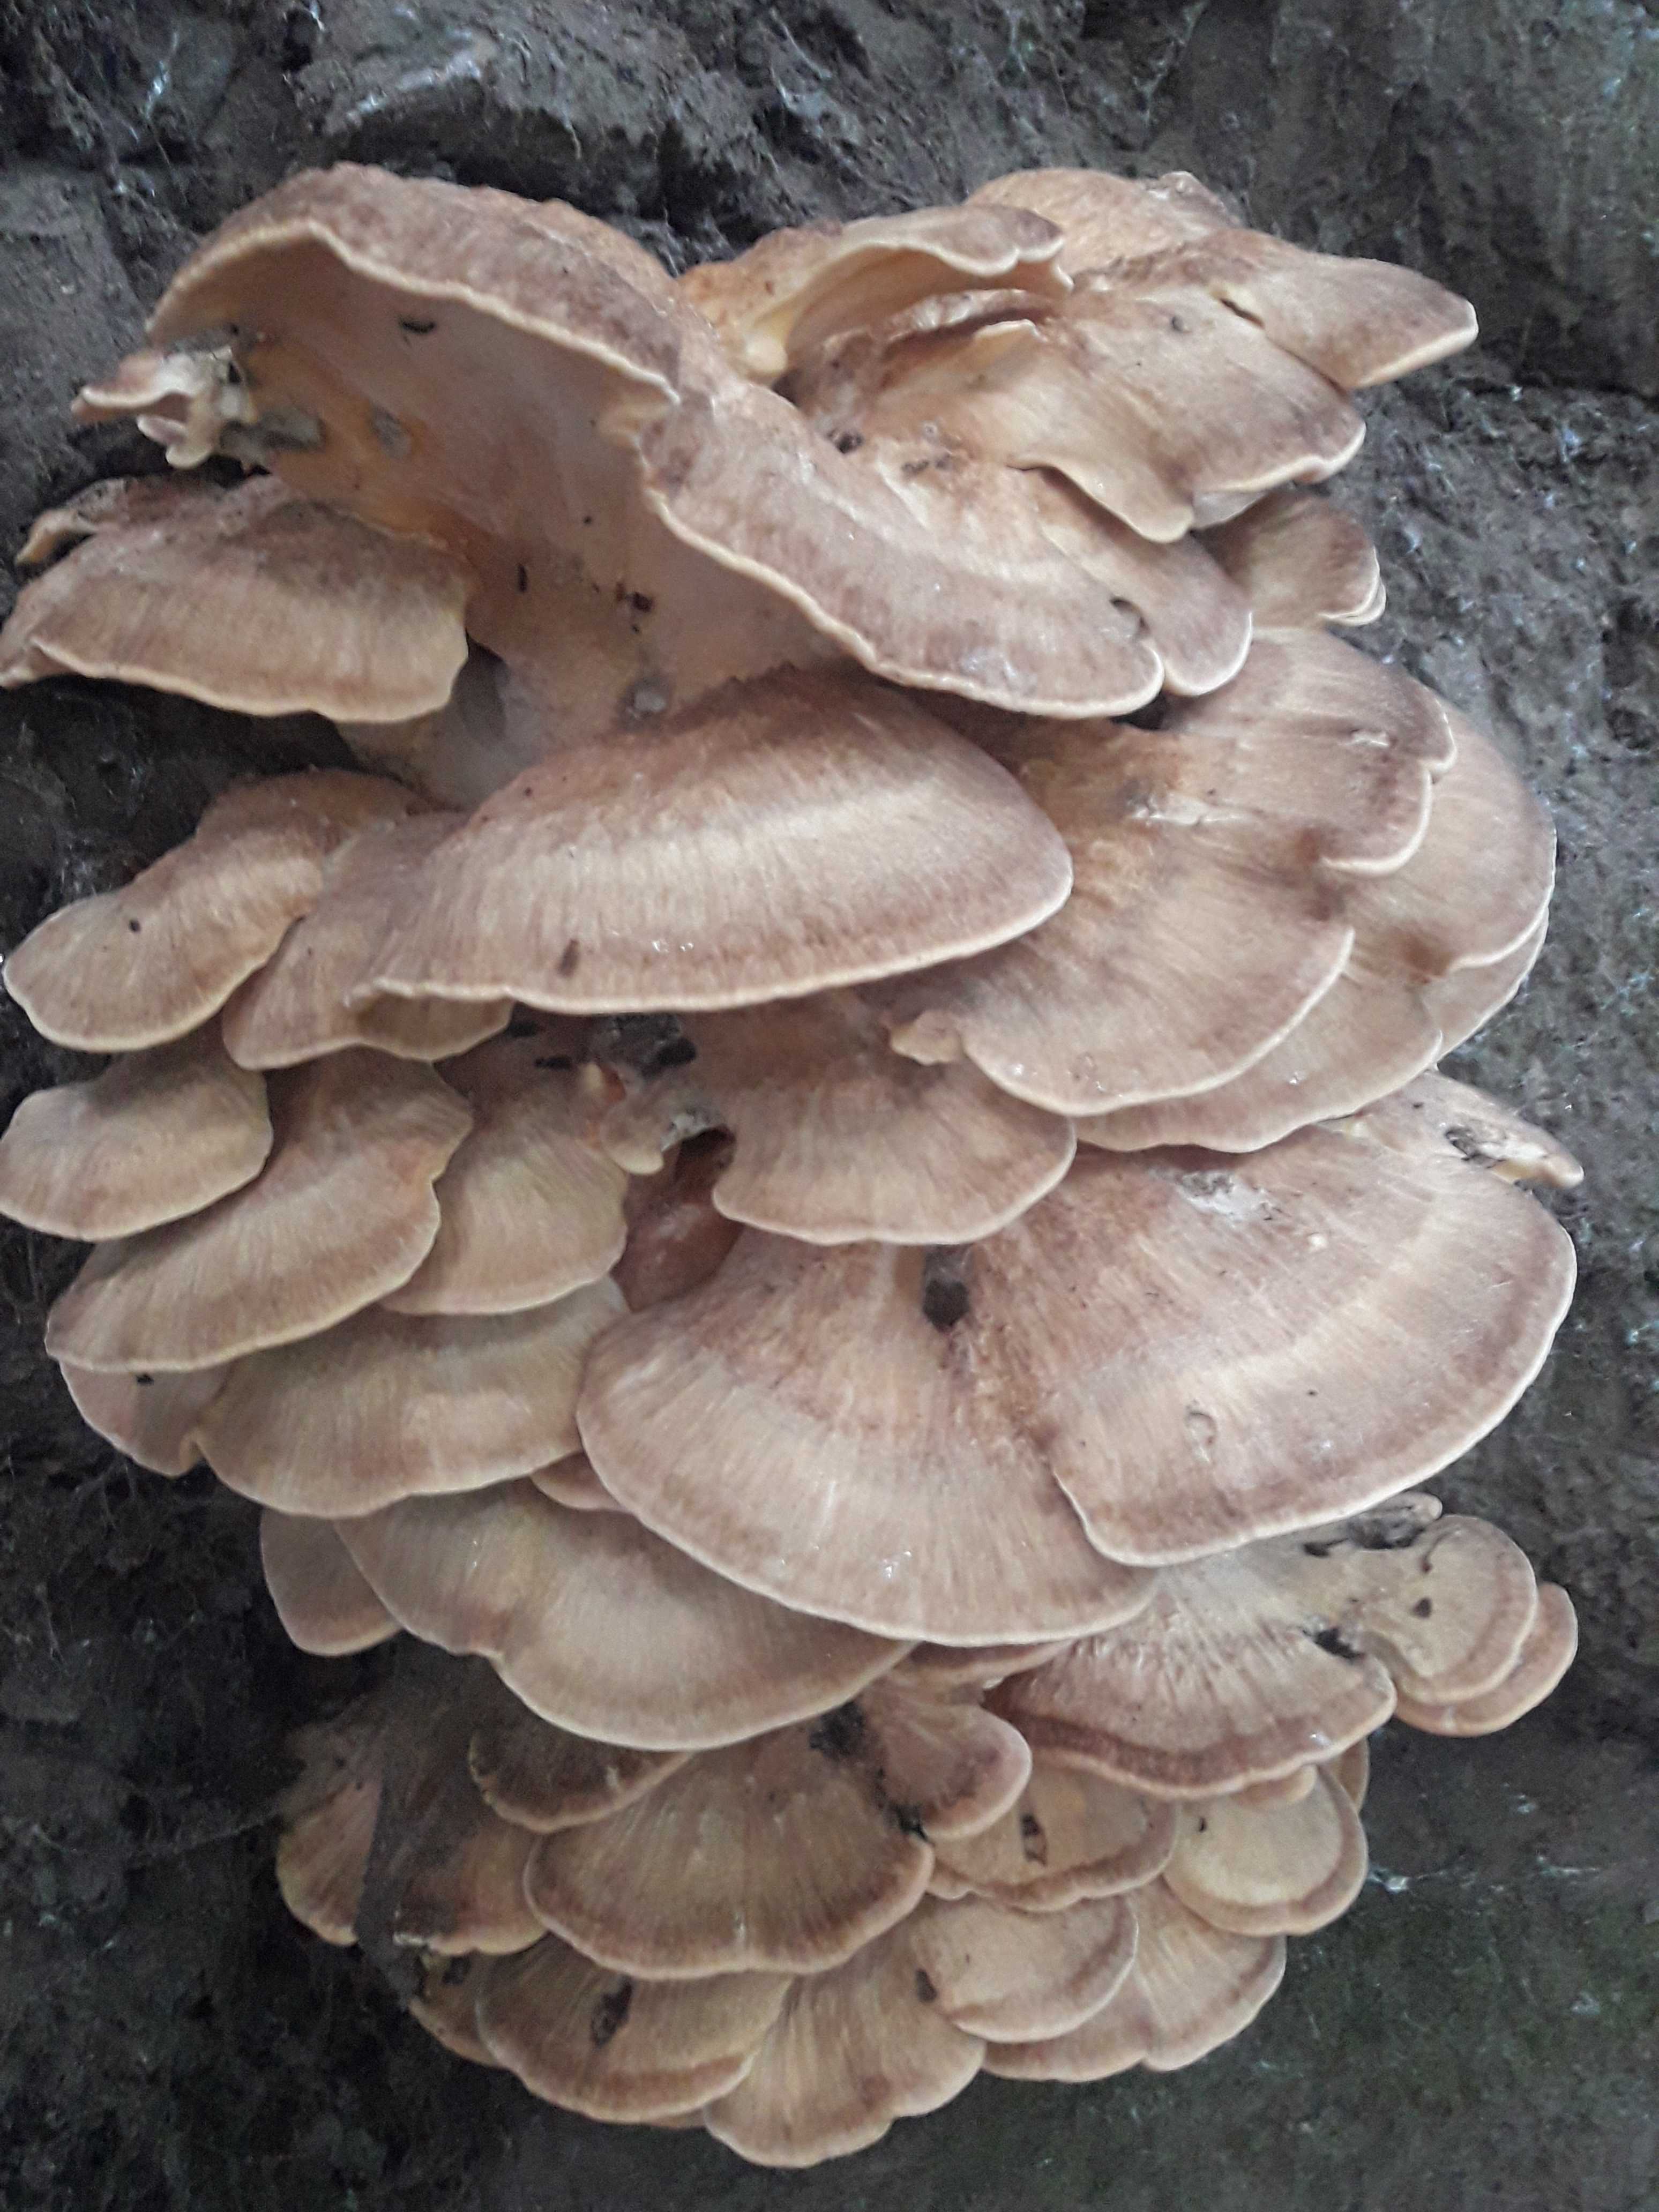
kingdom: Fungi
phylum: Basidiomycota
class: Agaricomycetes
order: Polyporales
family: Meripilaceae
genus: Meripilus
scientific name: Meripilus giganteus
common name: kæmpeporesvamp
